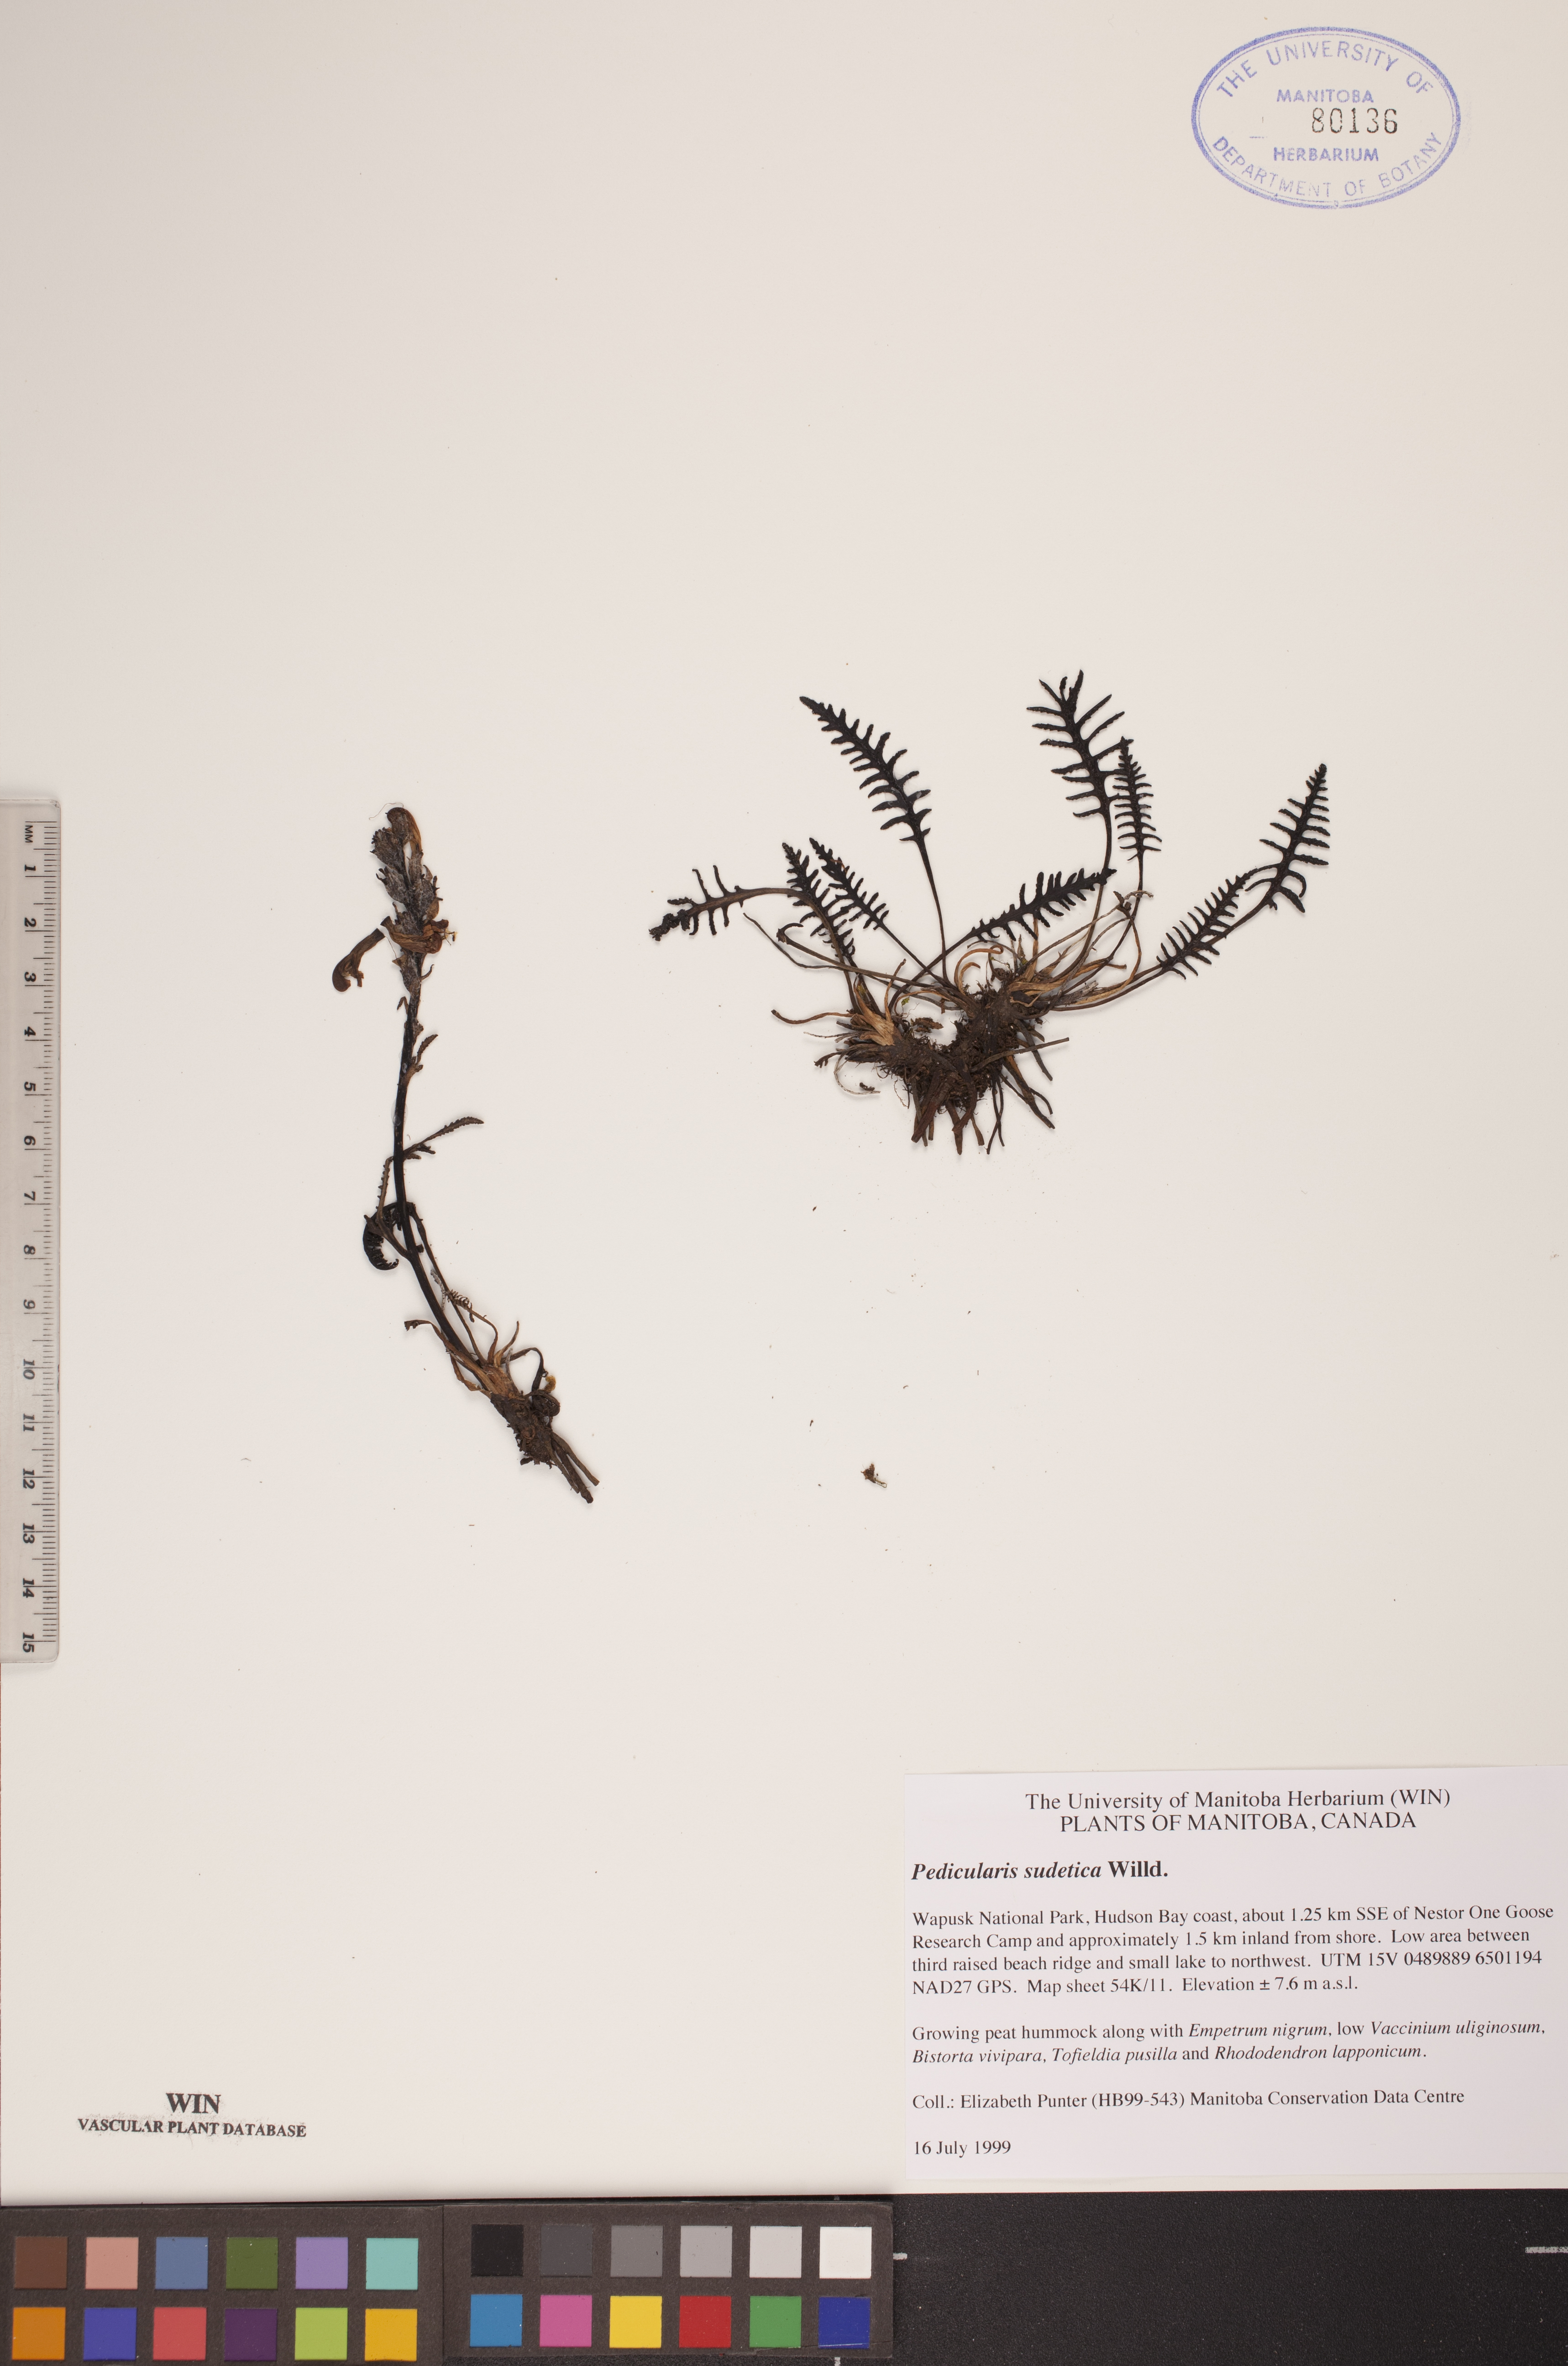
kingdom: Plantae
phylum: Tracheophyta
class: Magnoliopsida
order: Lamiales
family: Orobanchaceae
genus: Pedicularis
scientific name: Pedicularis sudetica
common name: Sudeten lousewort
